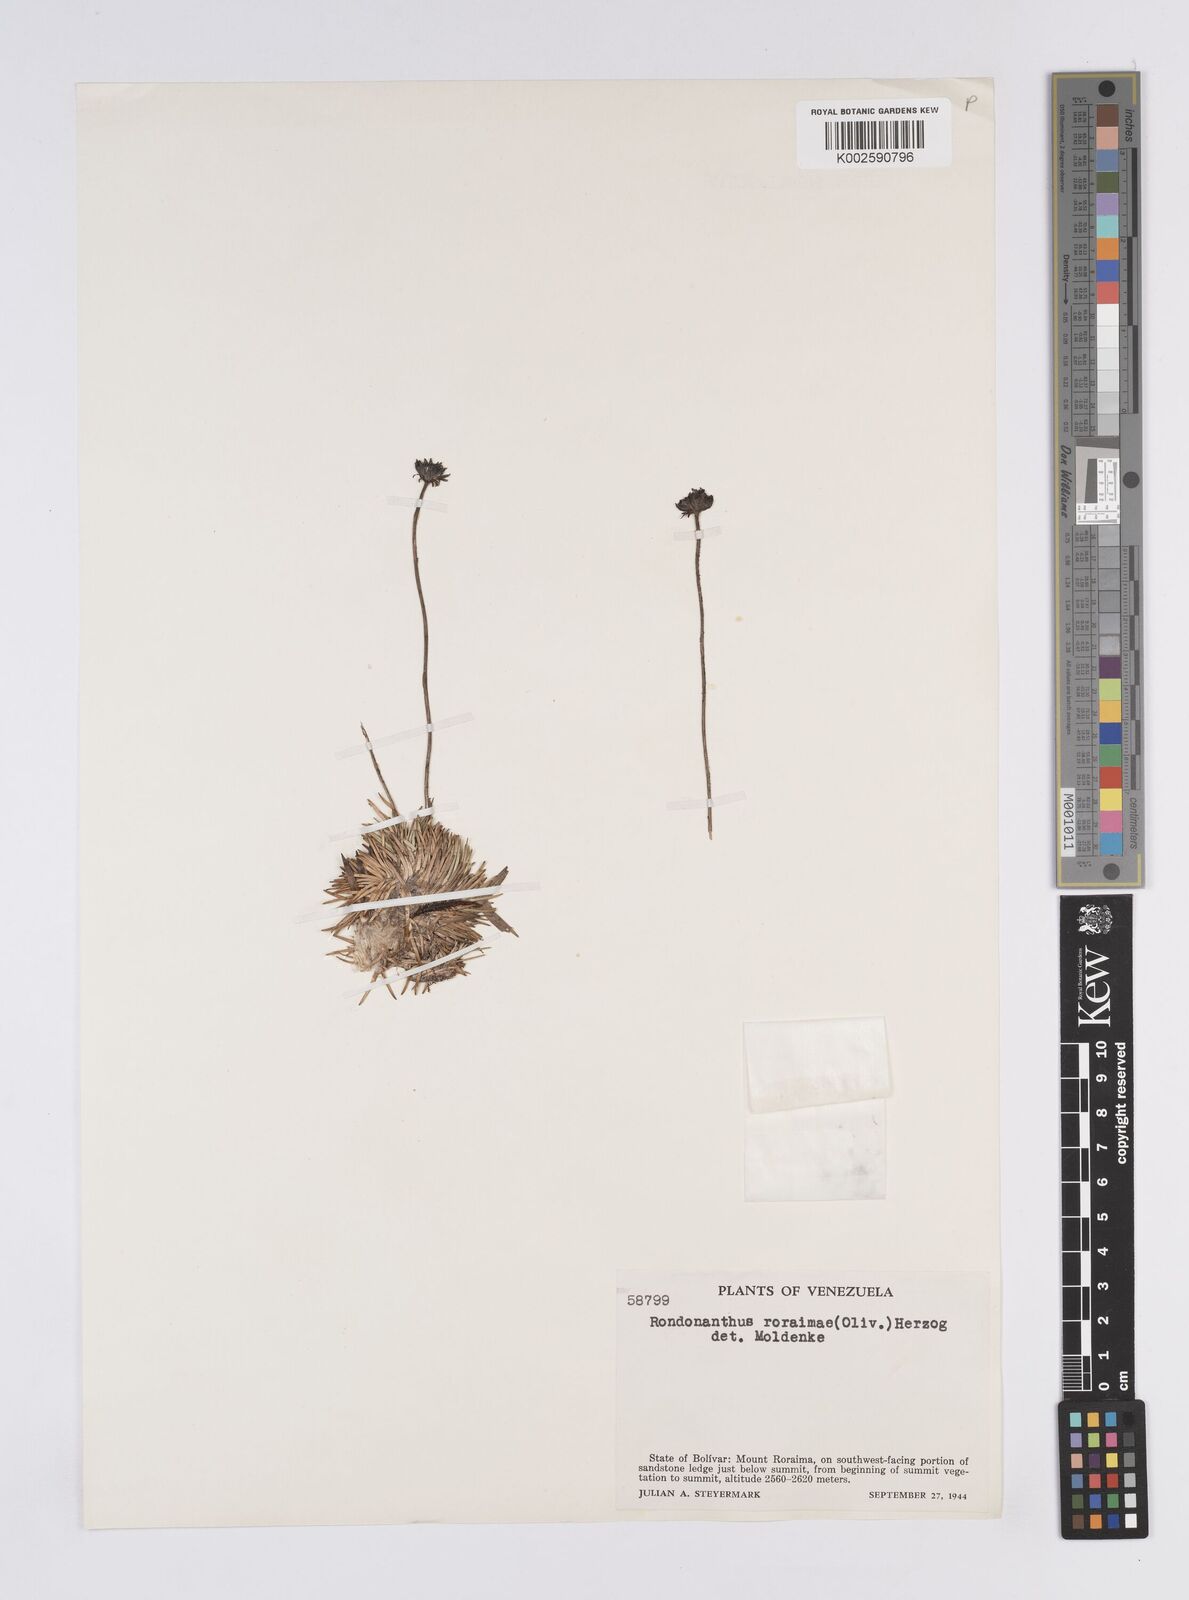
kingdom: Plantae
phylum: Tracheophyta
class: Liliopsida
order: Poales
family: Eriocaulaceae
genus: Rondonanthus
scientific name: Rondonanthus roraimae
